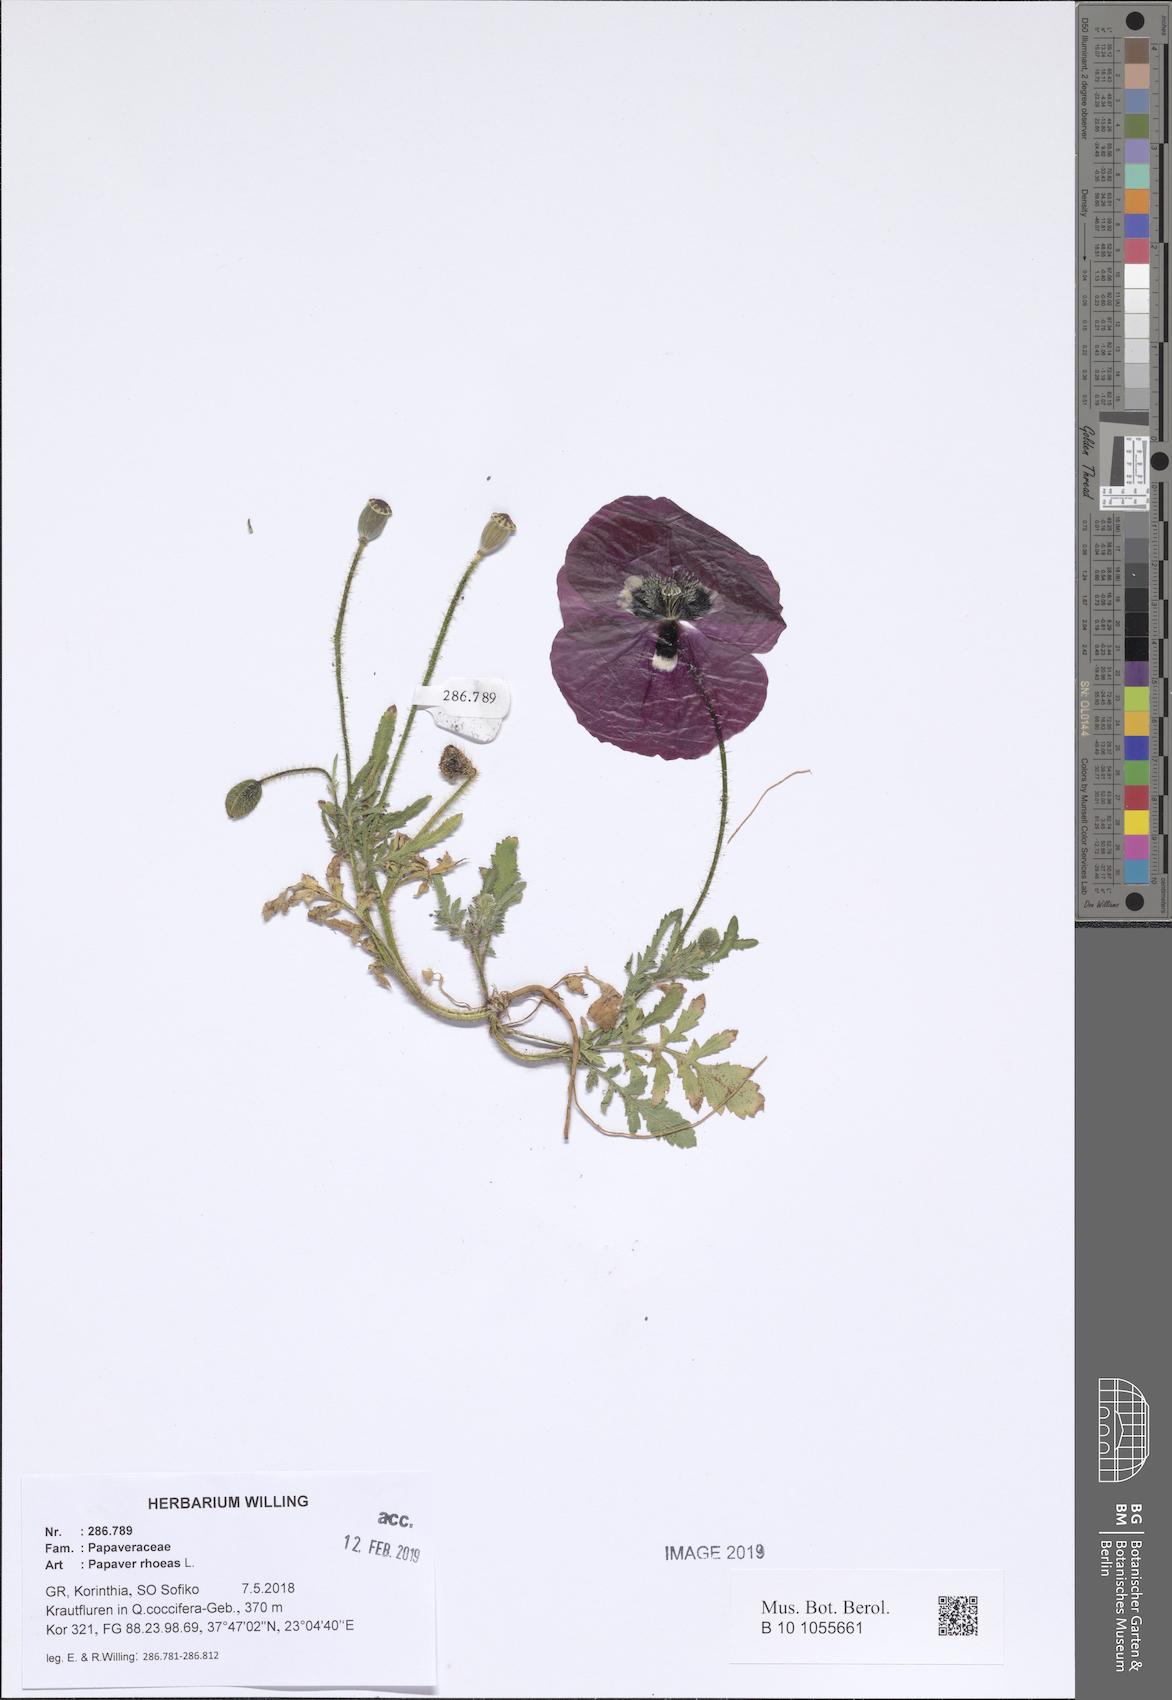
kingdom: Plantae
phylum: Tracheophyta
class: Magnoliopsida
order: Ranunculales
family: Papaveraceae
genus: Papaver
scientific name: Papaver rhoeas
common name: Corn poppy
